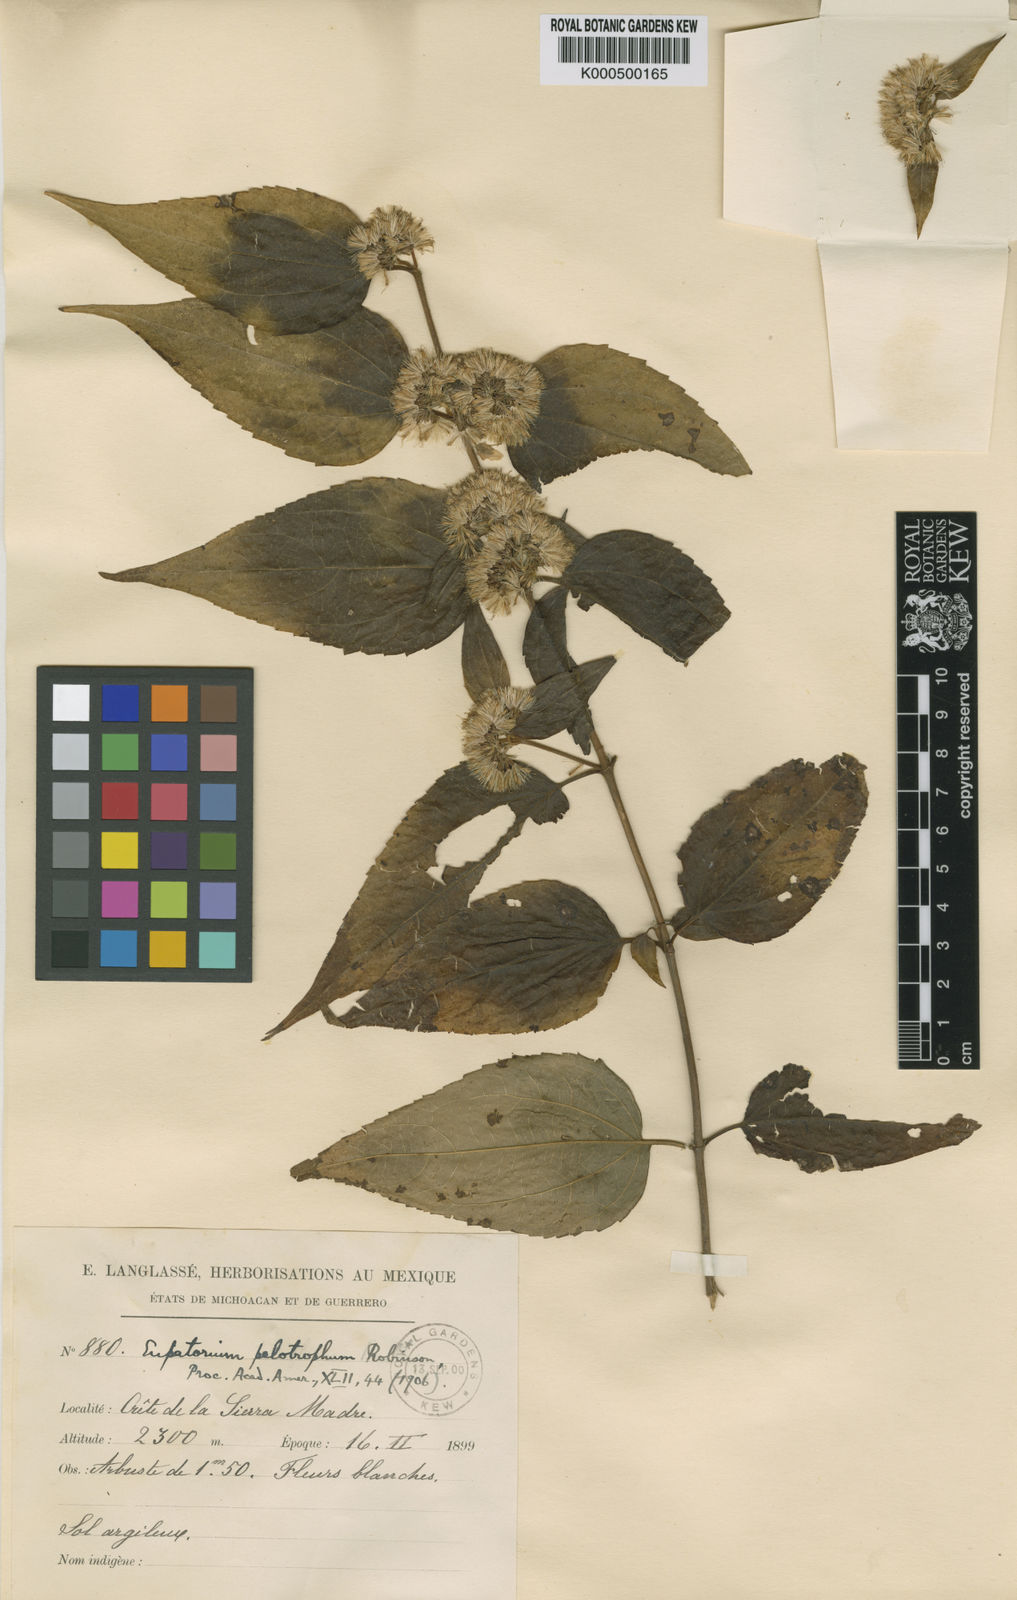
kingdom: Plantae
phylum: Tracheophyta
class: Magnoliopsida
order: Asterales
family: Asteraceae
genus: Ageratina
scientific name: Ageratina pelotropha
